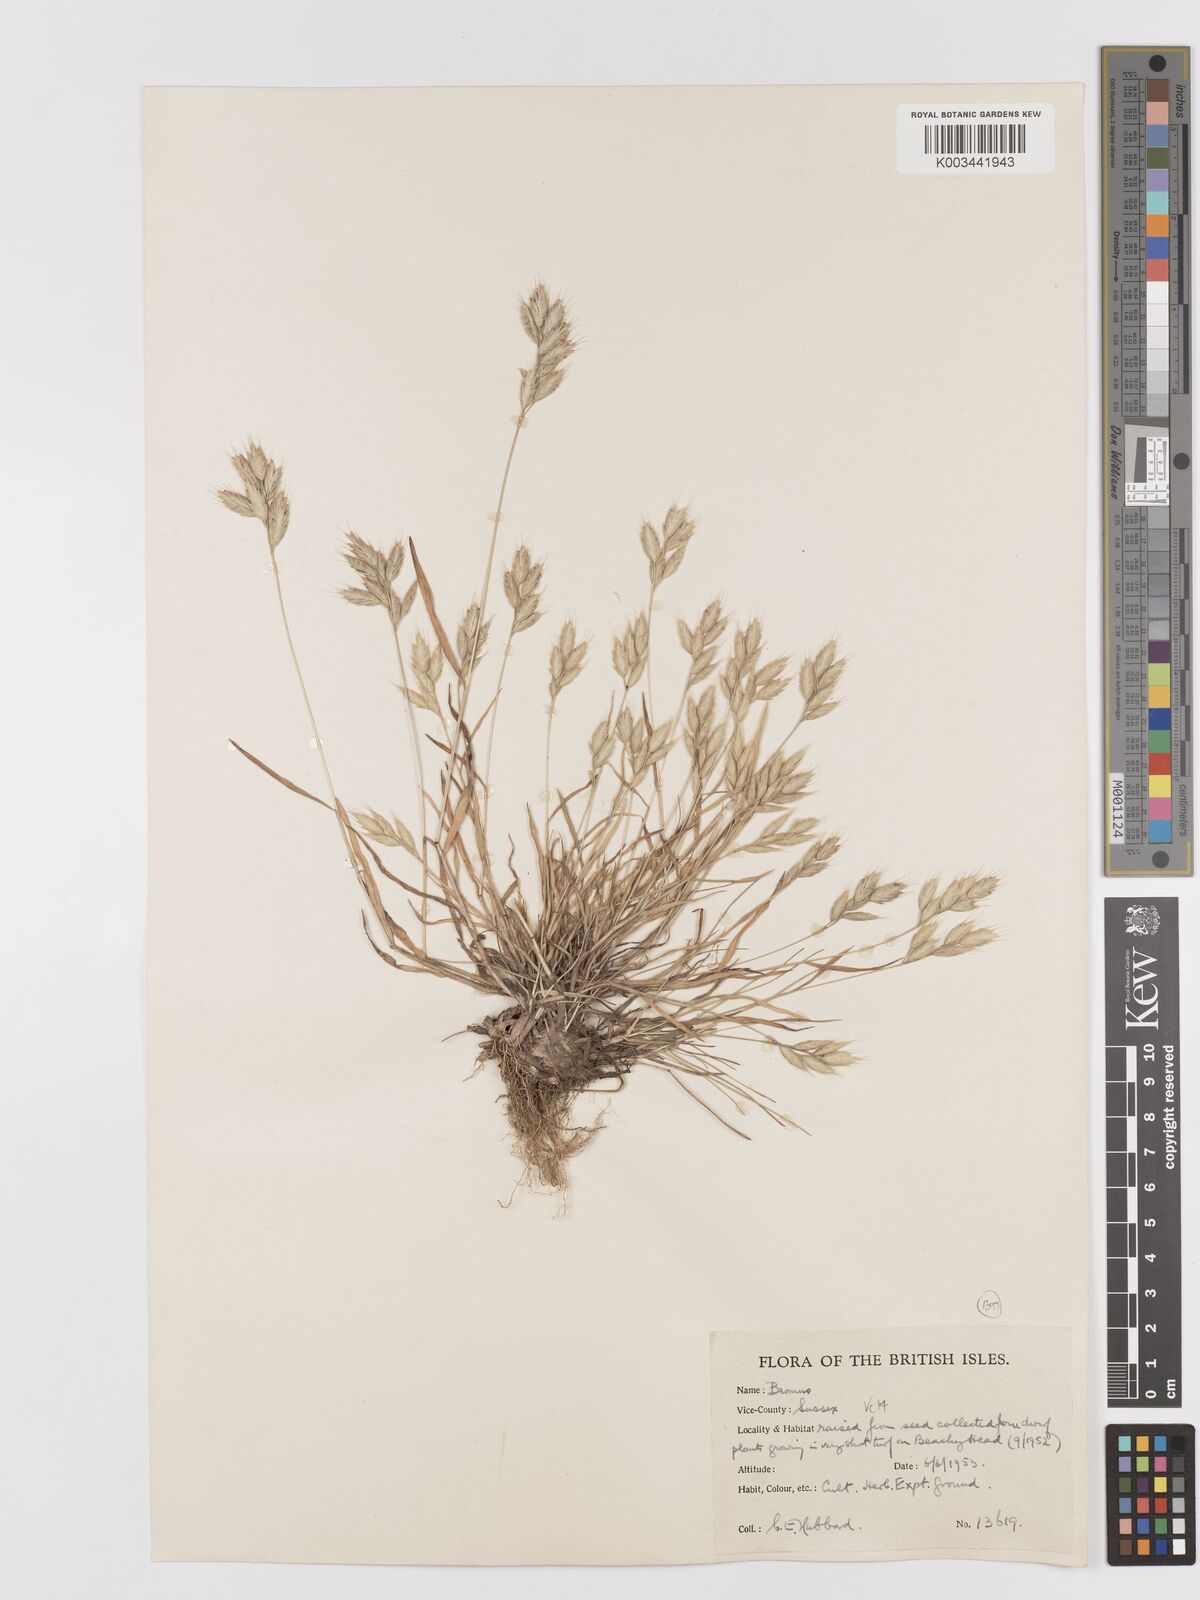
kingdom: Plantae
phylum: Tracheophyta
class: Liliopsida
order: Poales
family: Poaceae
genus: Bromus
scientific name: Bromus hordeaceus
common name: Soft brome
